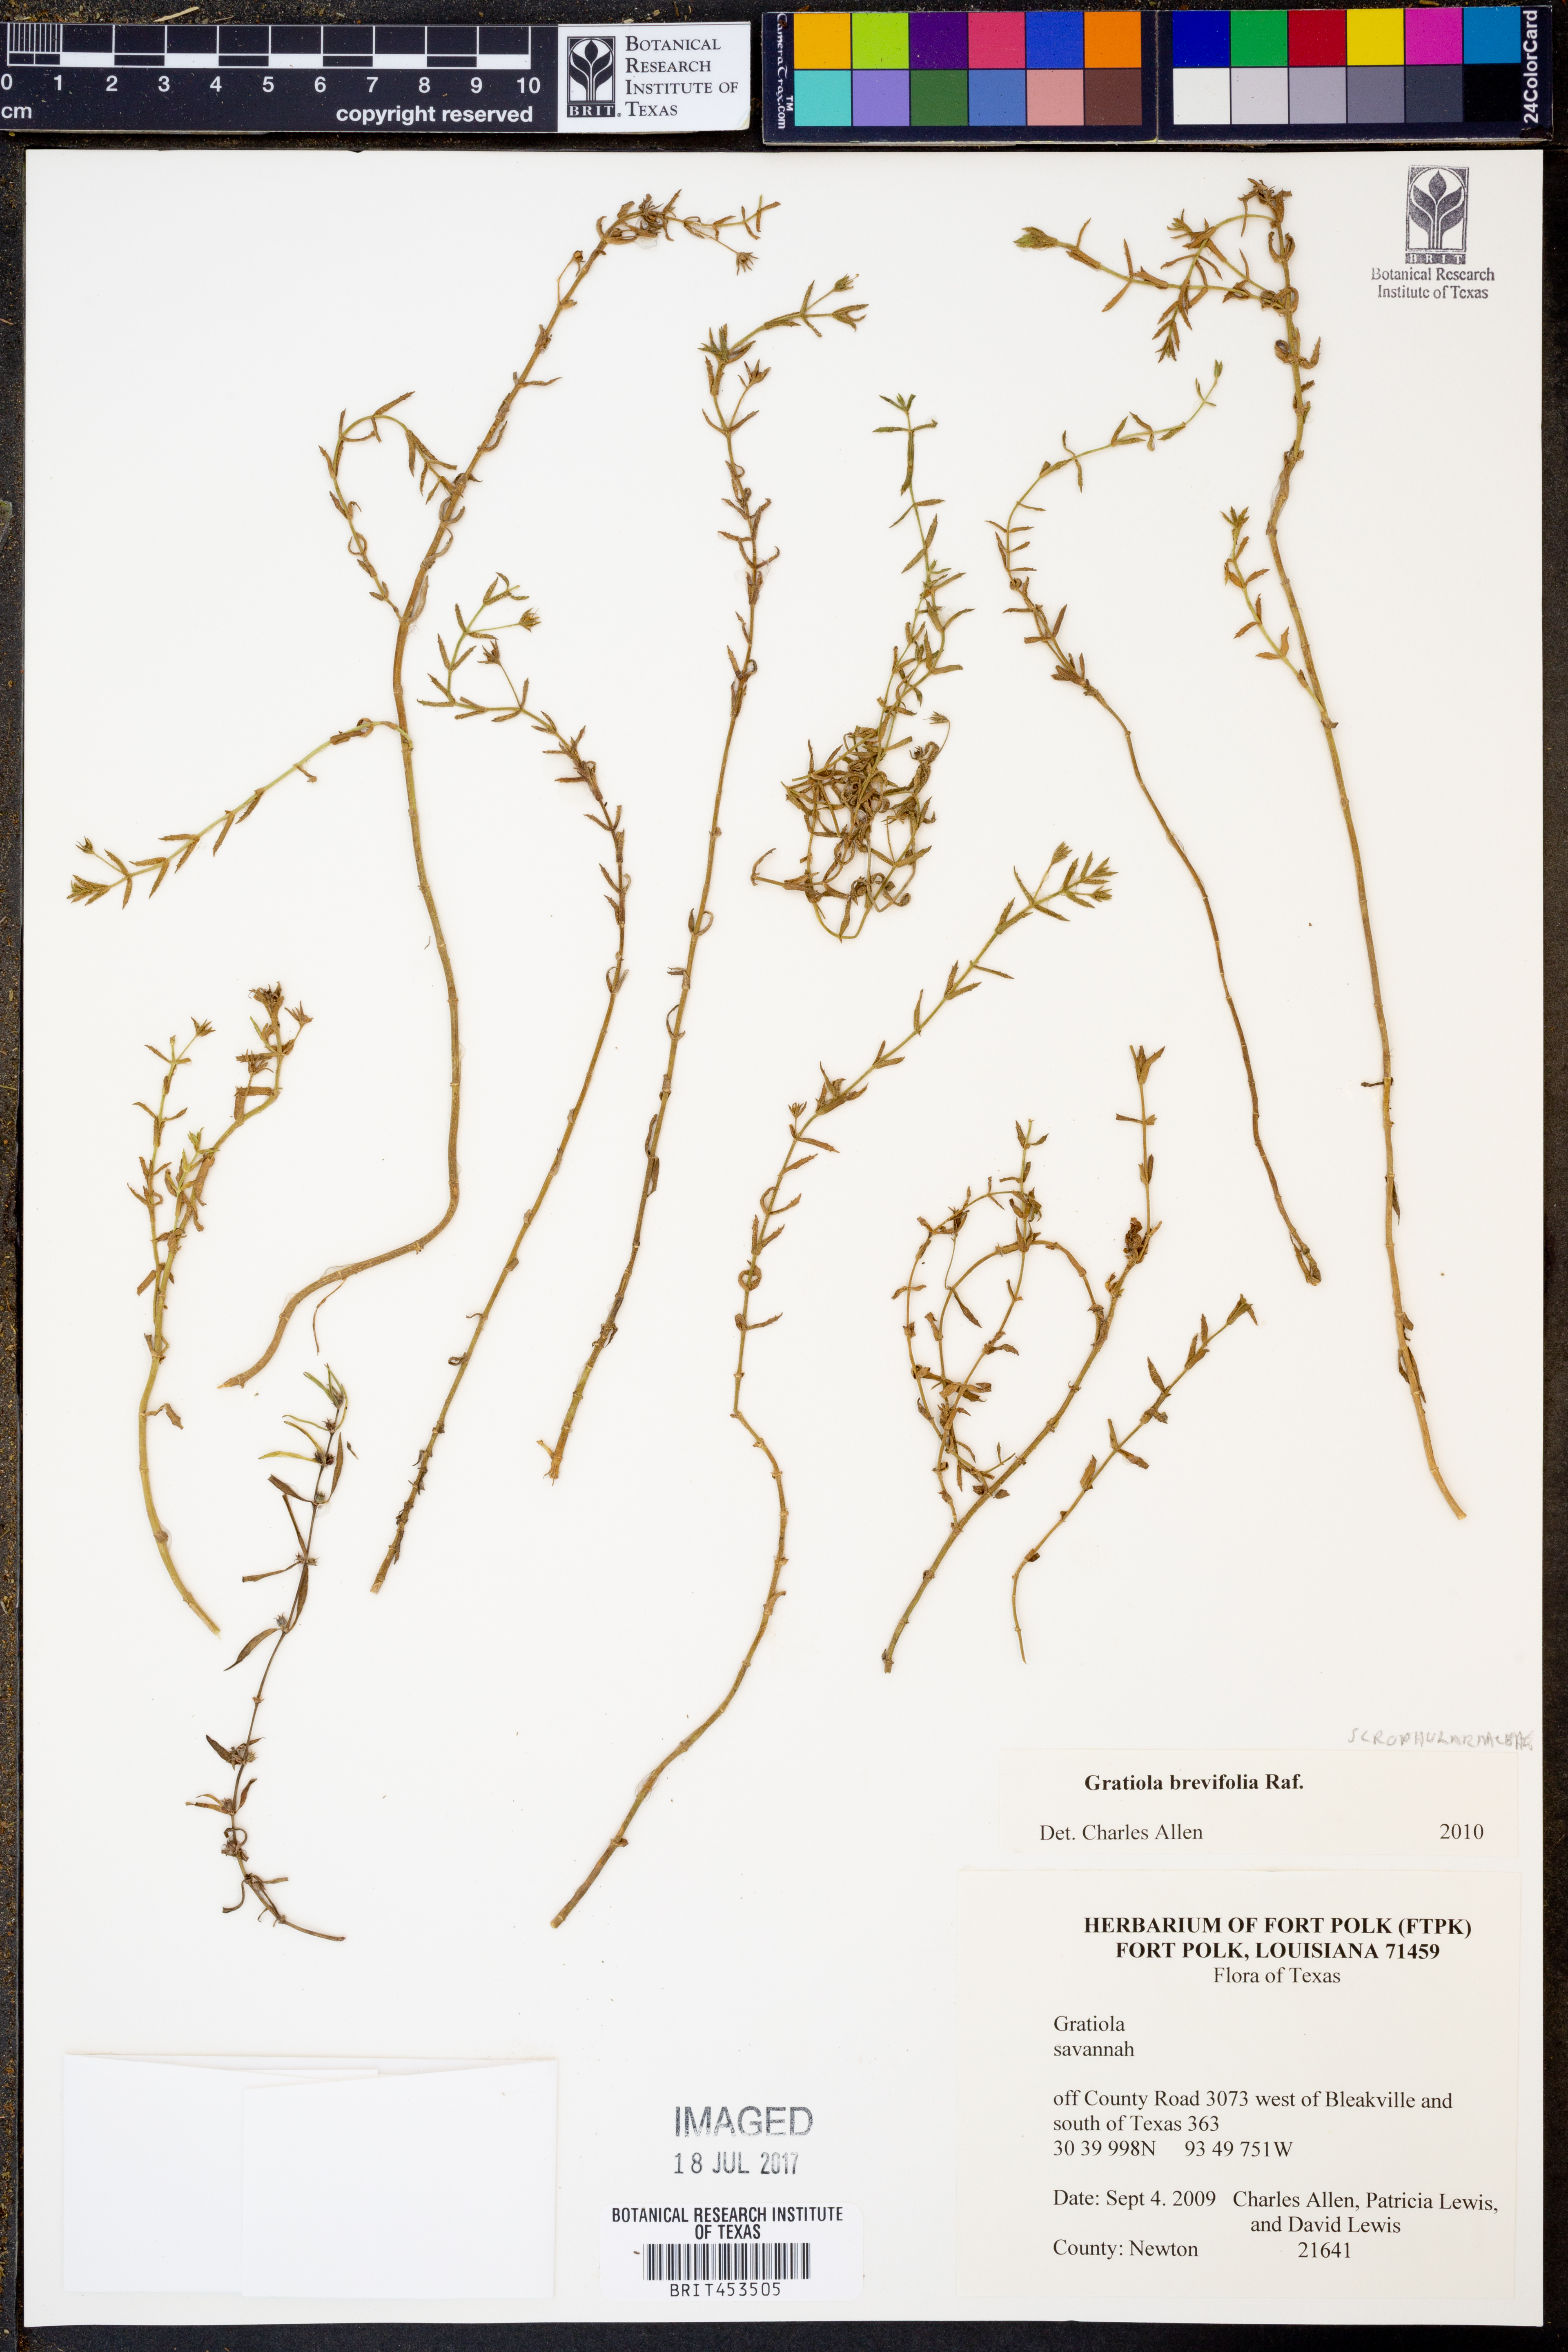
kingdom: Plantae
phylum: Tracheophyta
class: Magnoliopsida
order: Lamiales
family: Plantaginaceae
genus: Gratiola
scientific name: Gratiola brevifolia
